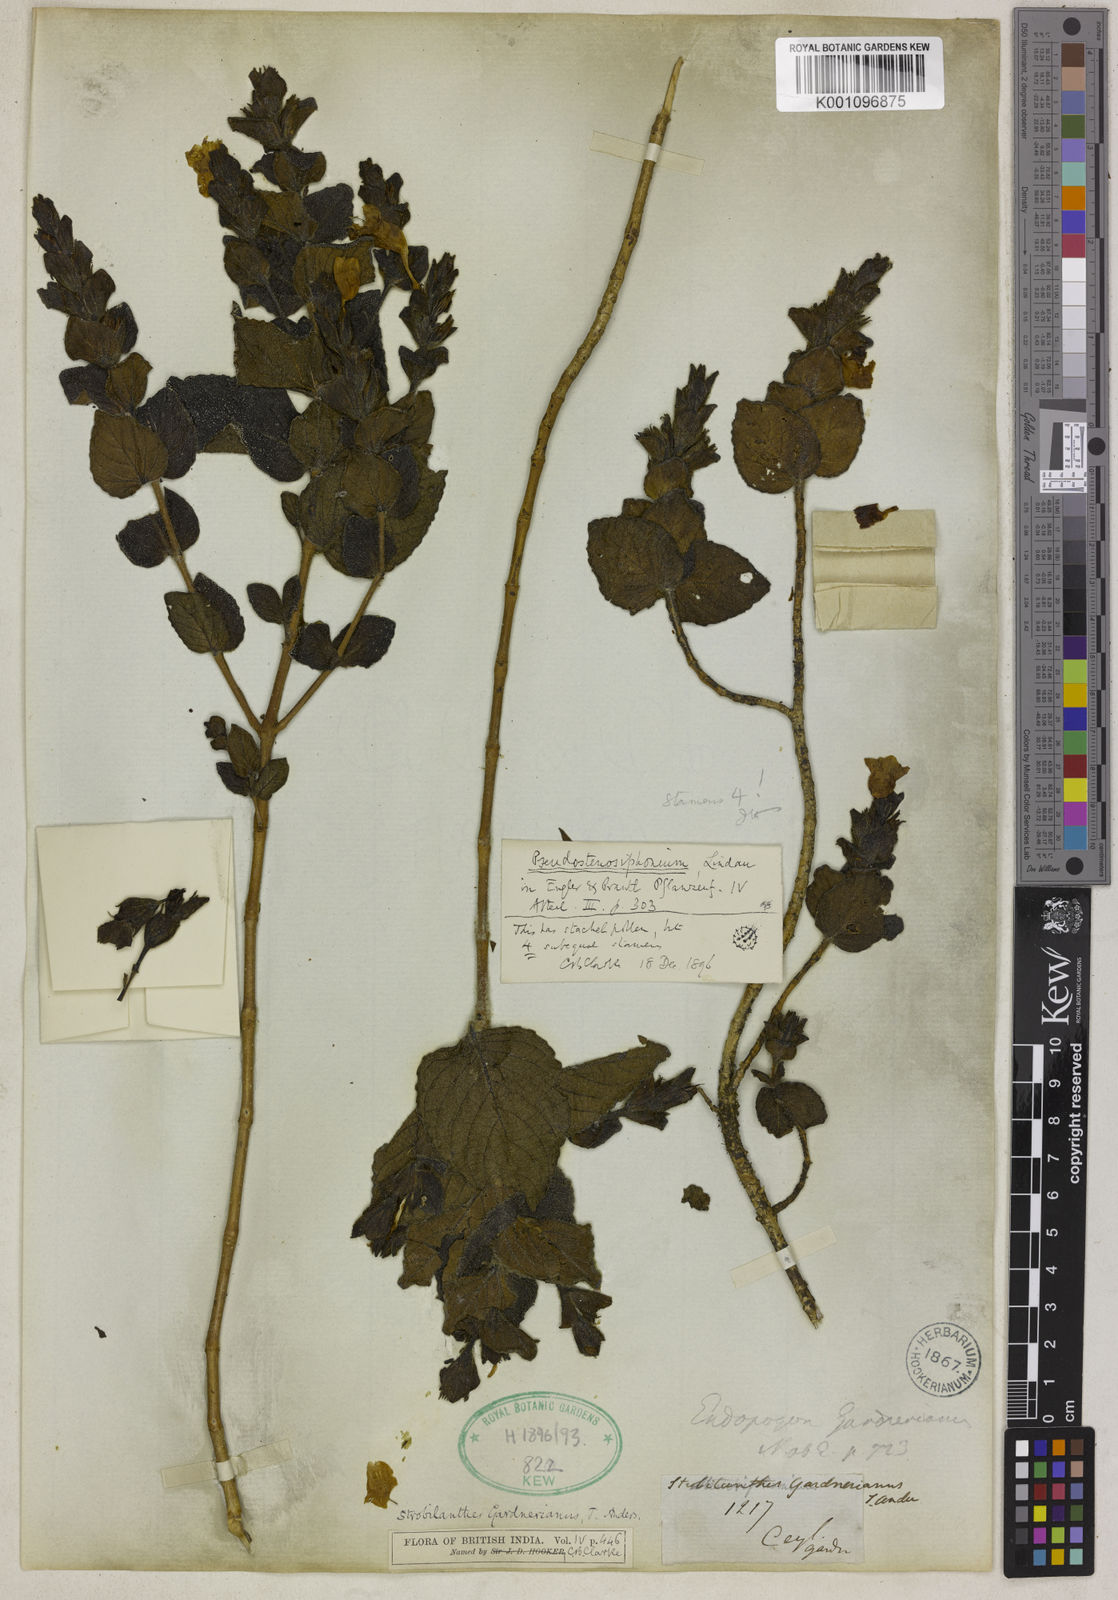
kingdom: Plantae
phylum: Tracheophyta
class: Magnoliopsida
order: Lamiales
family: Acanthaceae
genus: Strobilanthes
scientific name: Strobilanthes gardneriana
